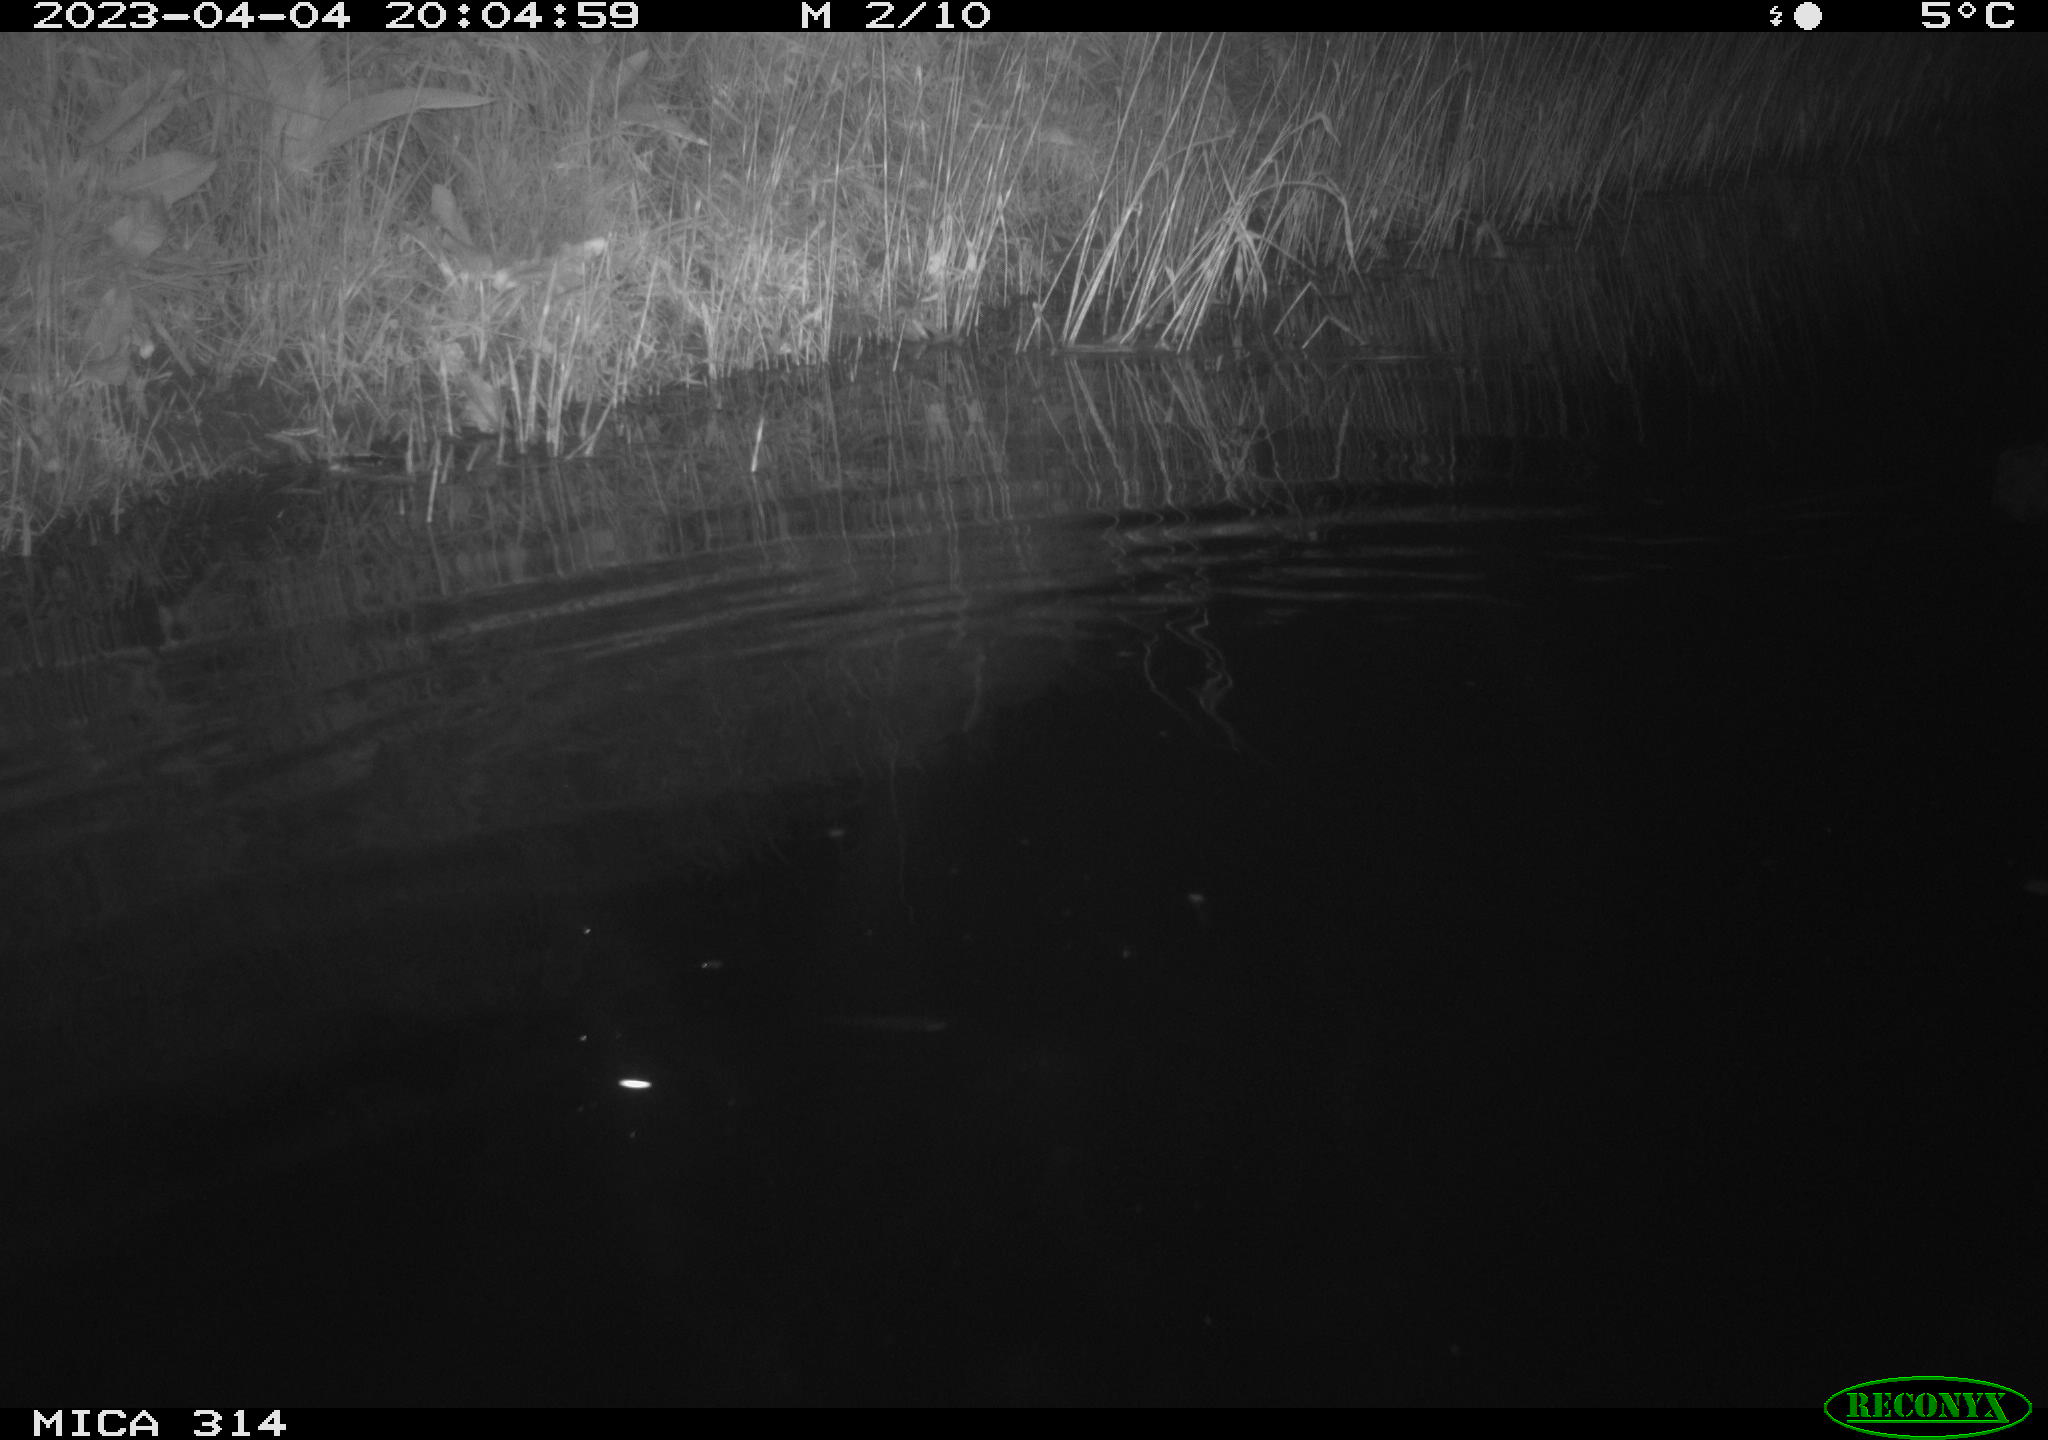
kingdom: Animalia
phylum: Chordata
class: Mammalia
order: Rodentia
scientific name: Rodentia
